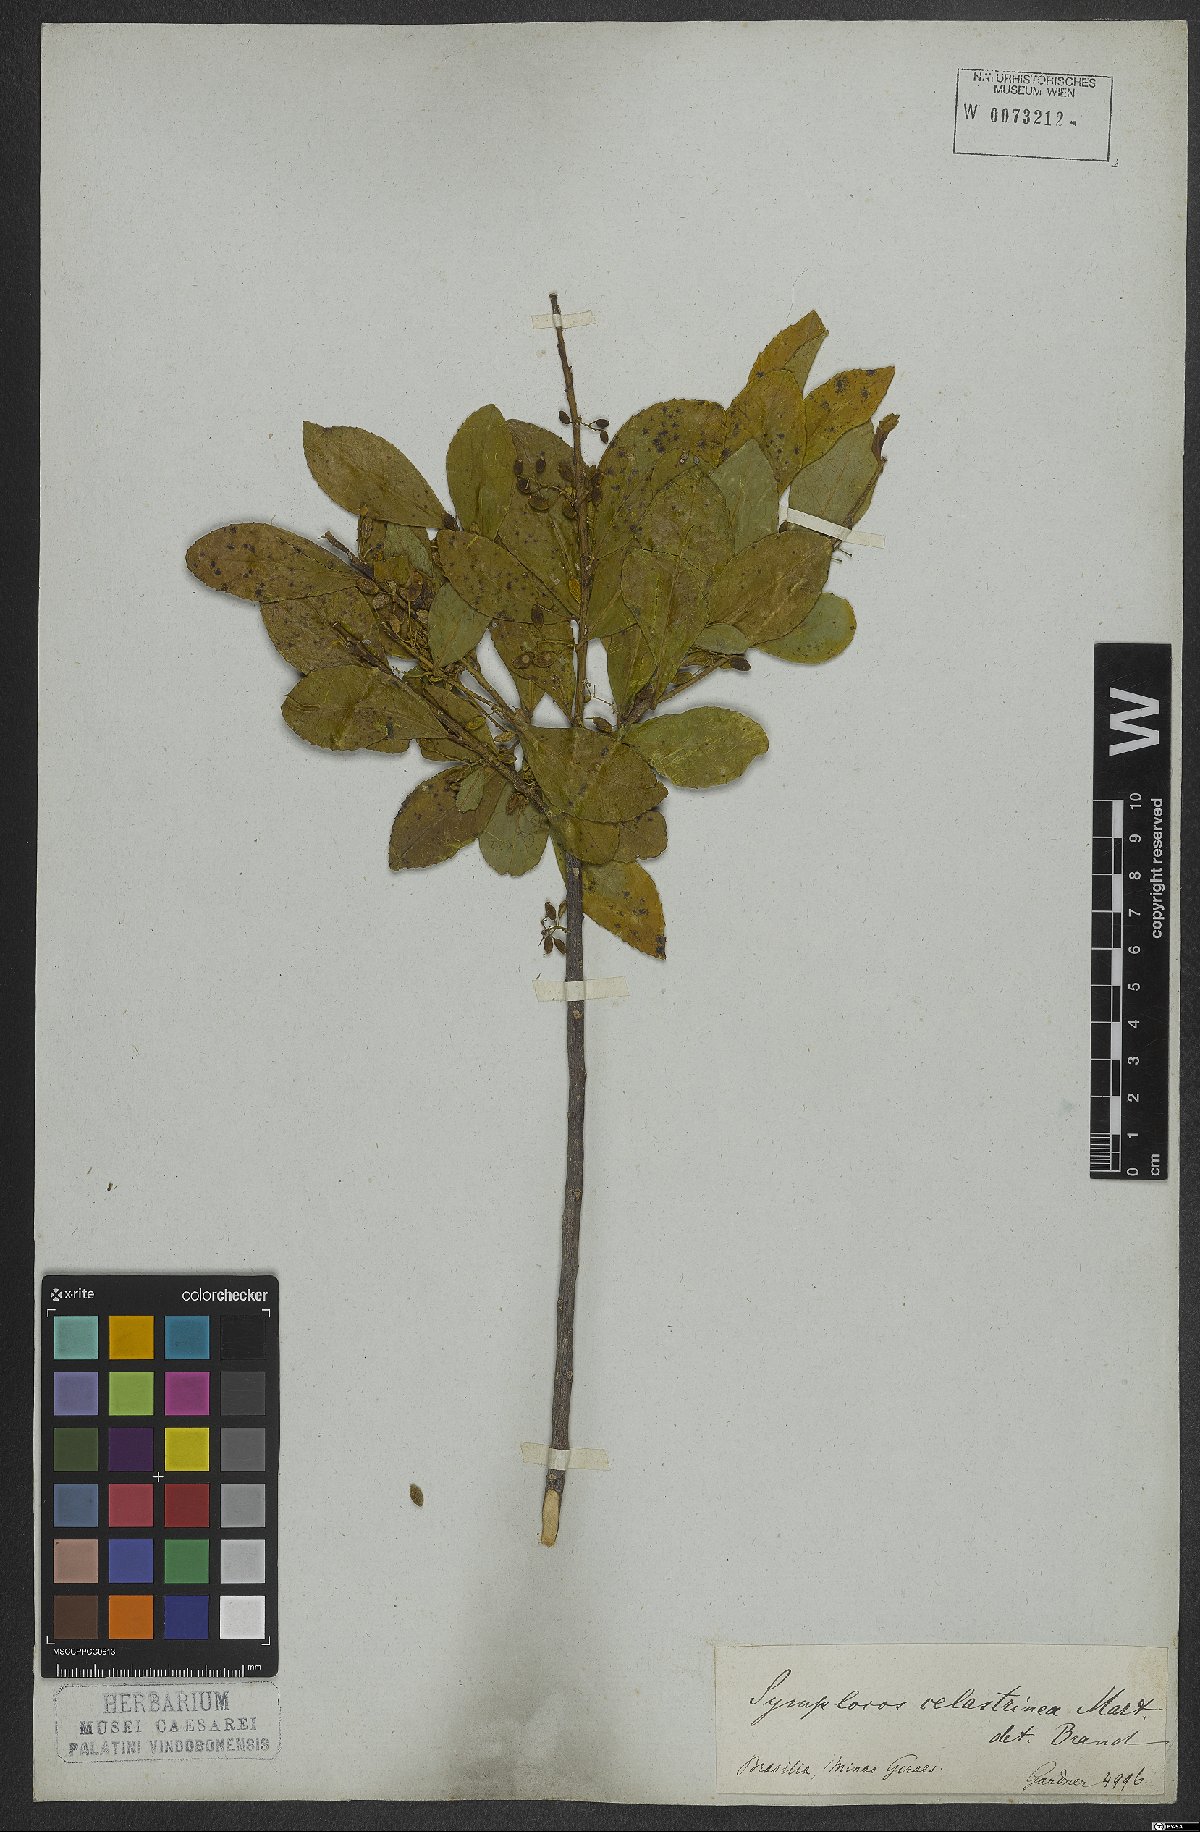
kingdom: Plantae
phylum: Tracheophyta
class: Magnoliopsida
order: Ericales
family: Symplocaceae
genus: Symplocos
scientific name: Symplocos celastrinea
